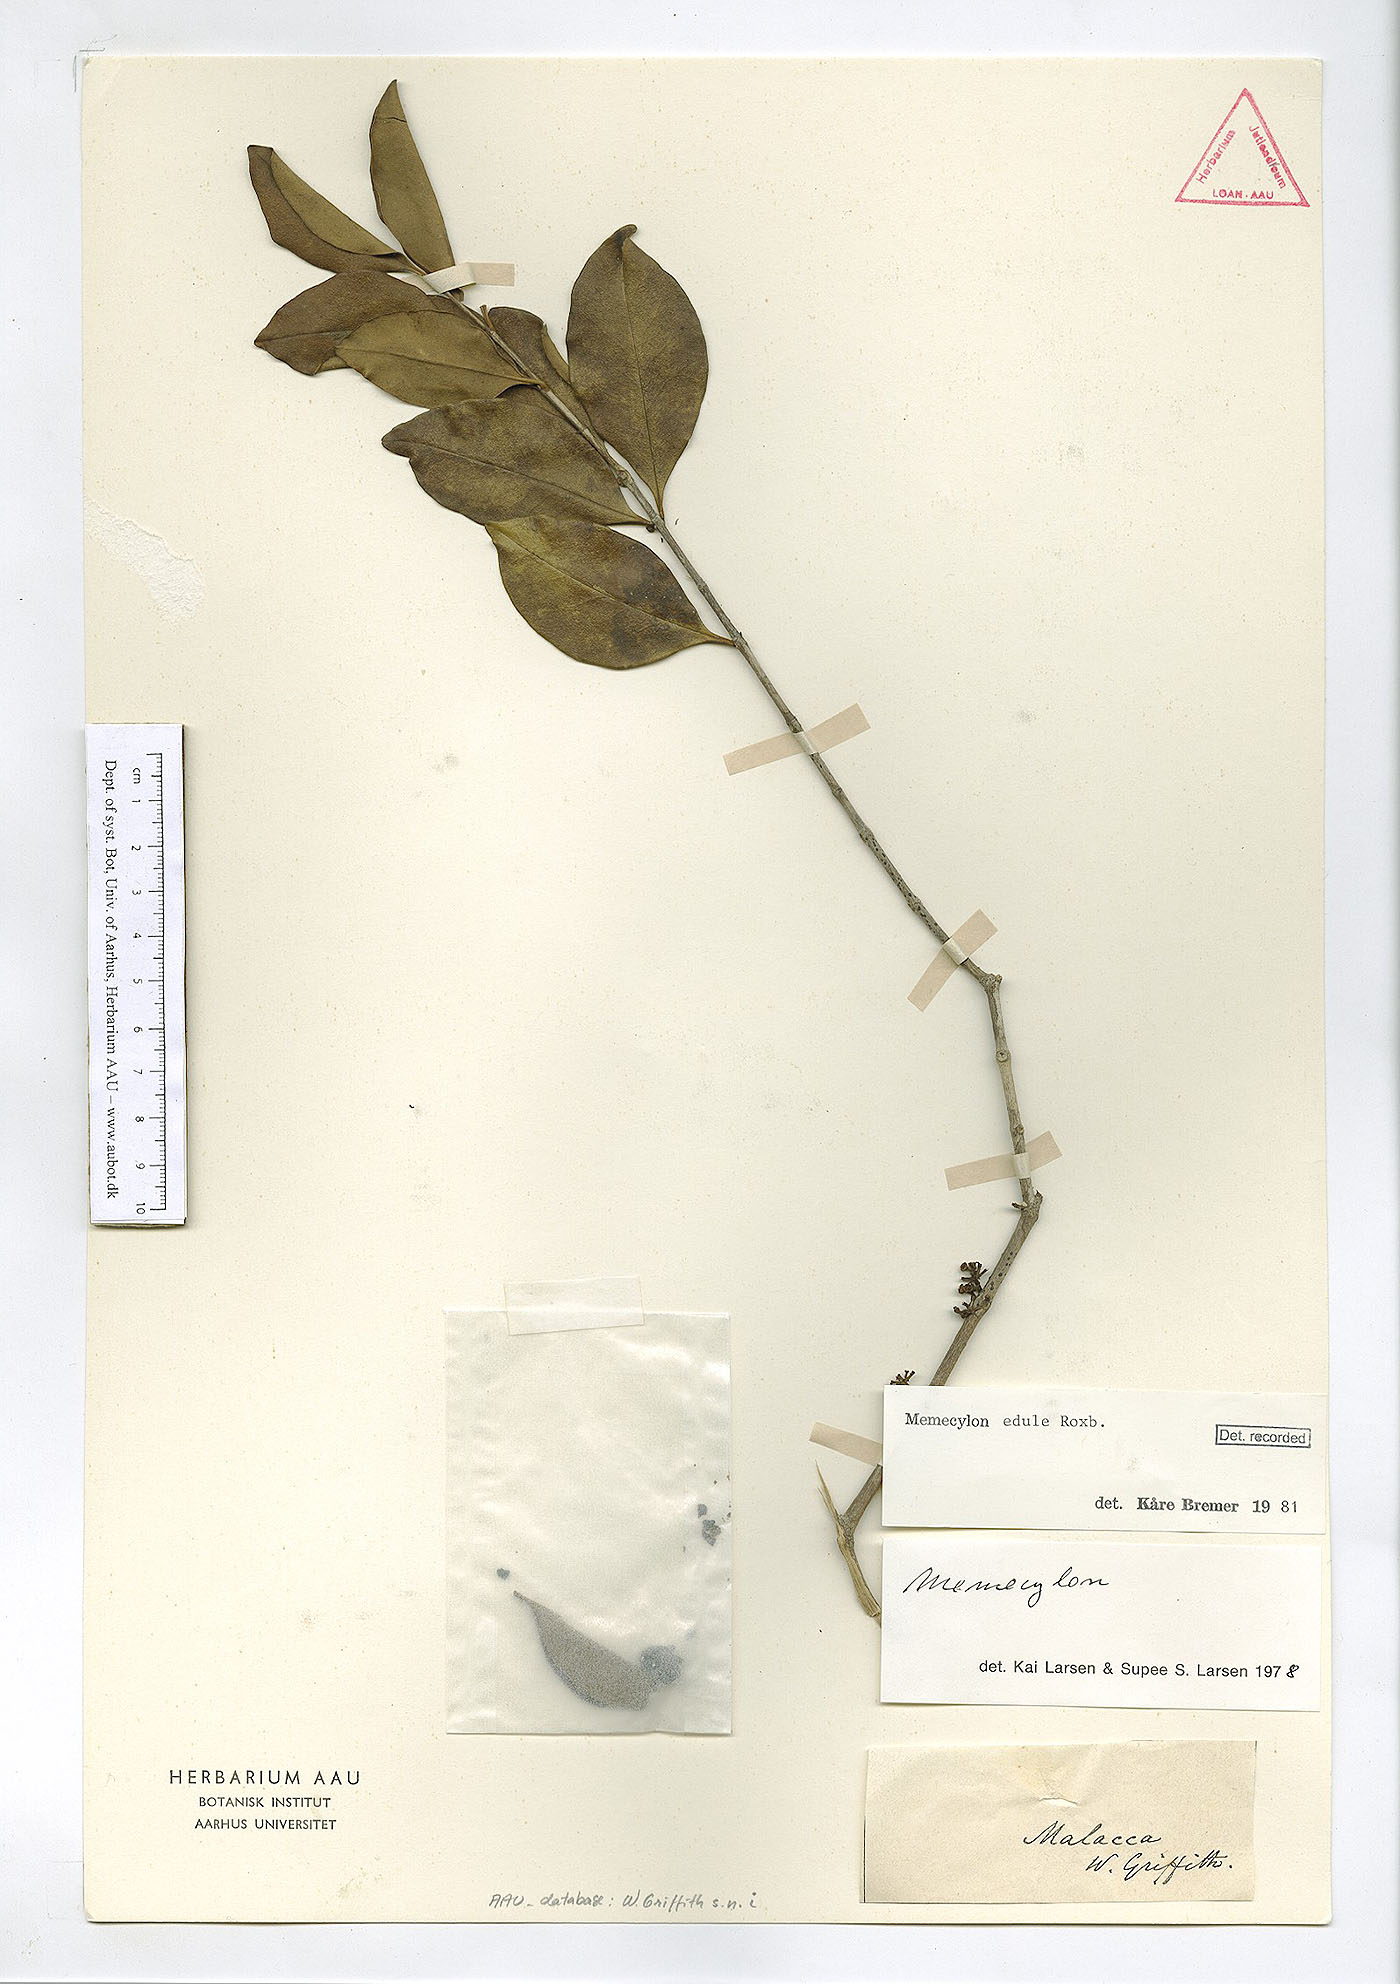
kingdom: Plantae
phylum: Tracheophyta
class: Magnoliopsida
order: Myrtales
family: Melastomataceae
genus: Memecylon
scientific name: Memecylon edule
